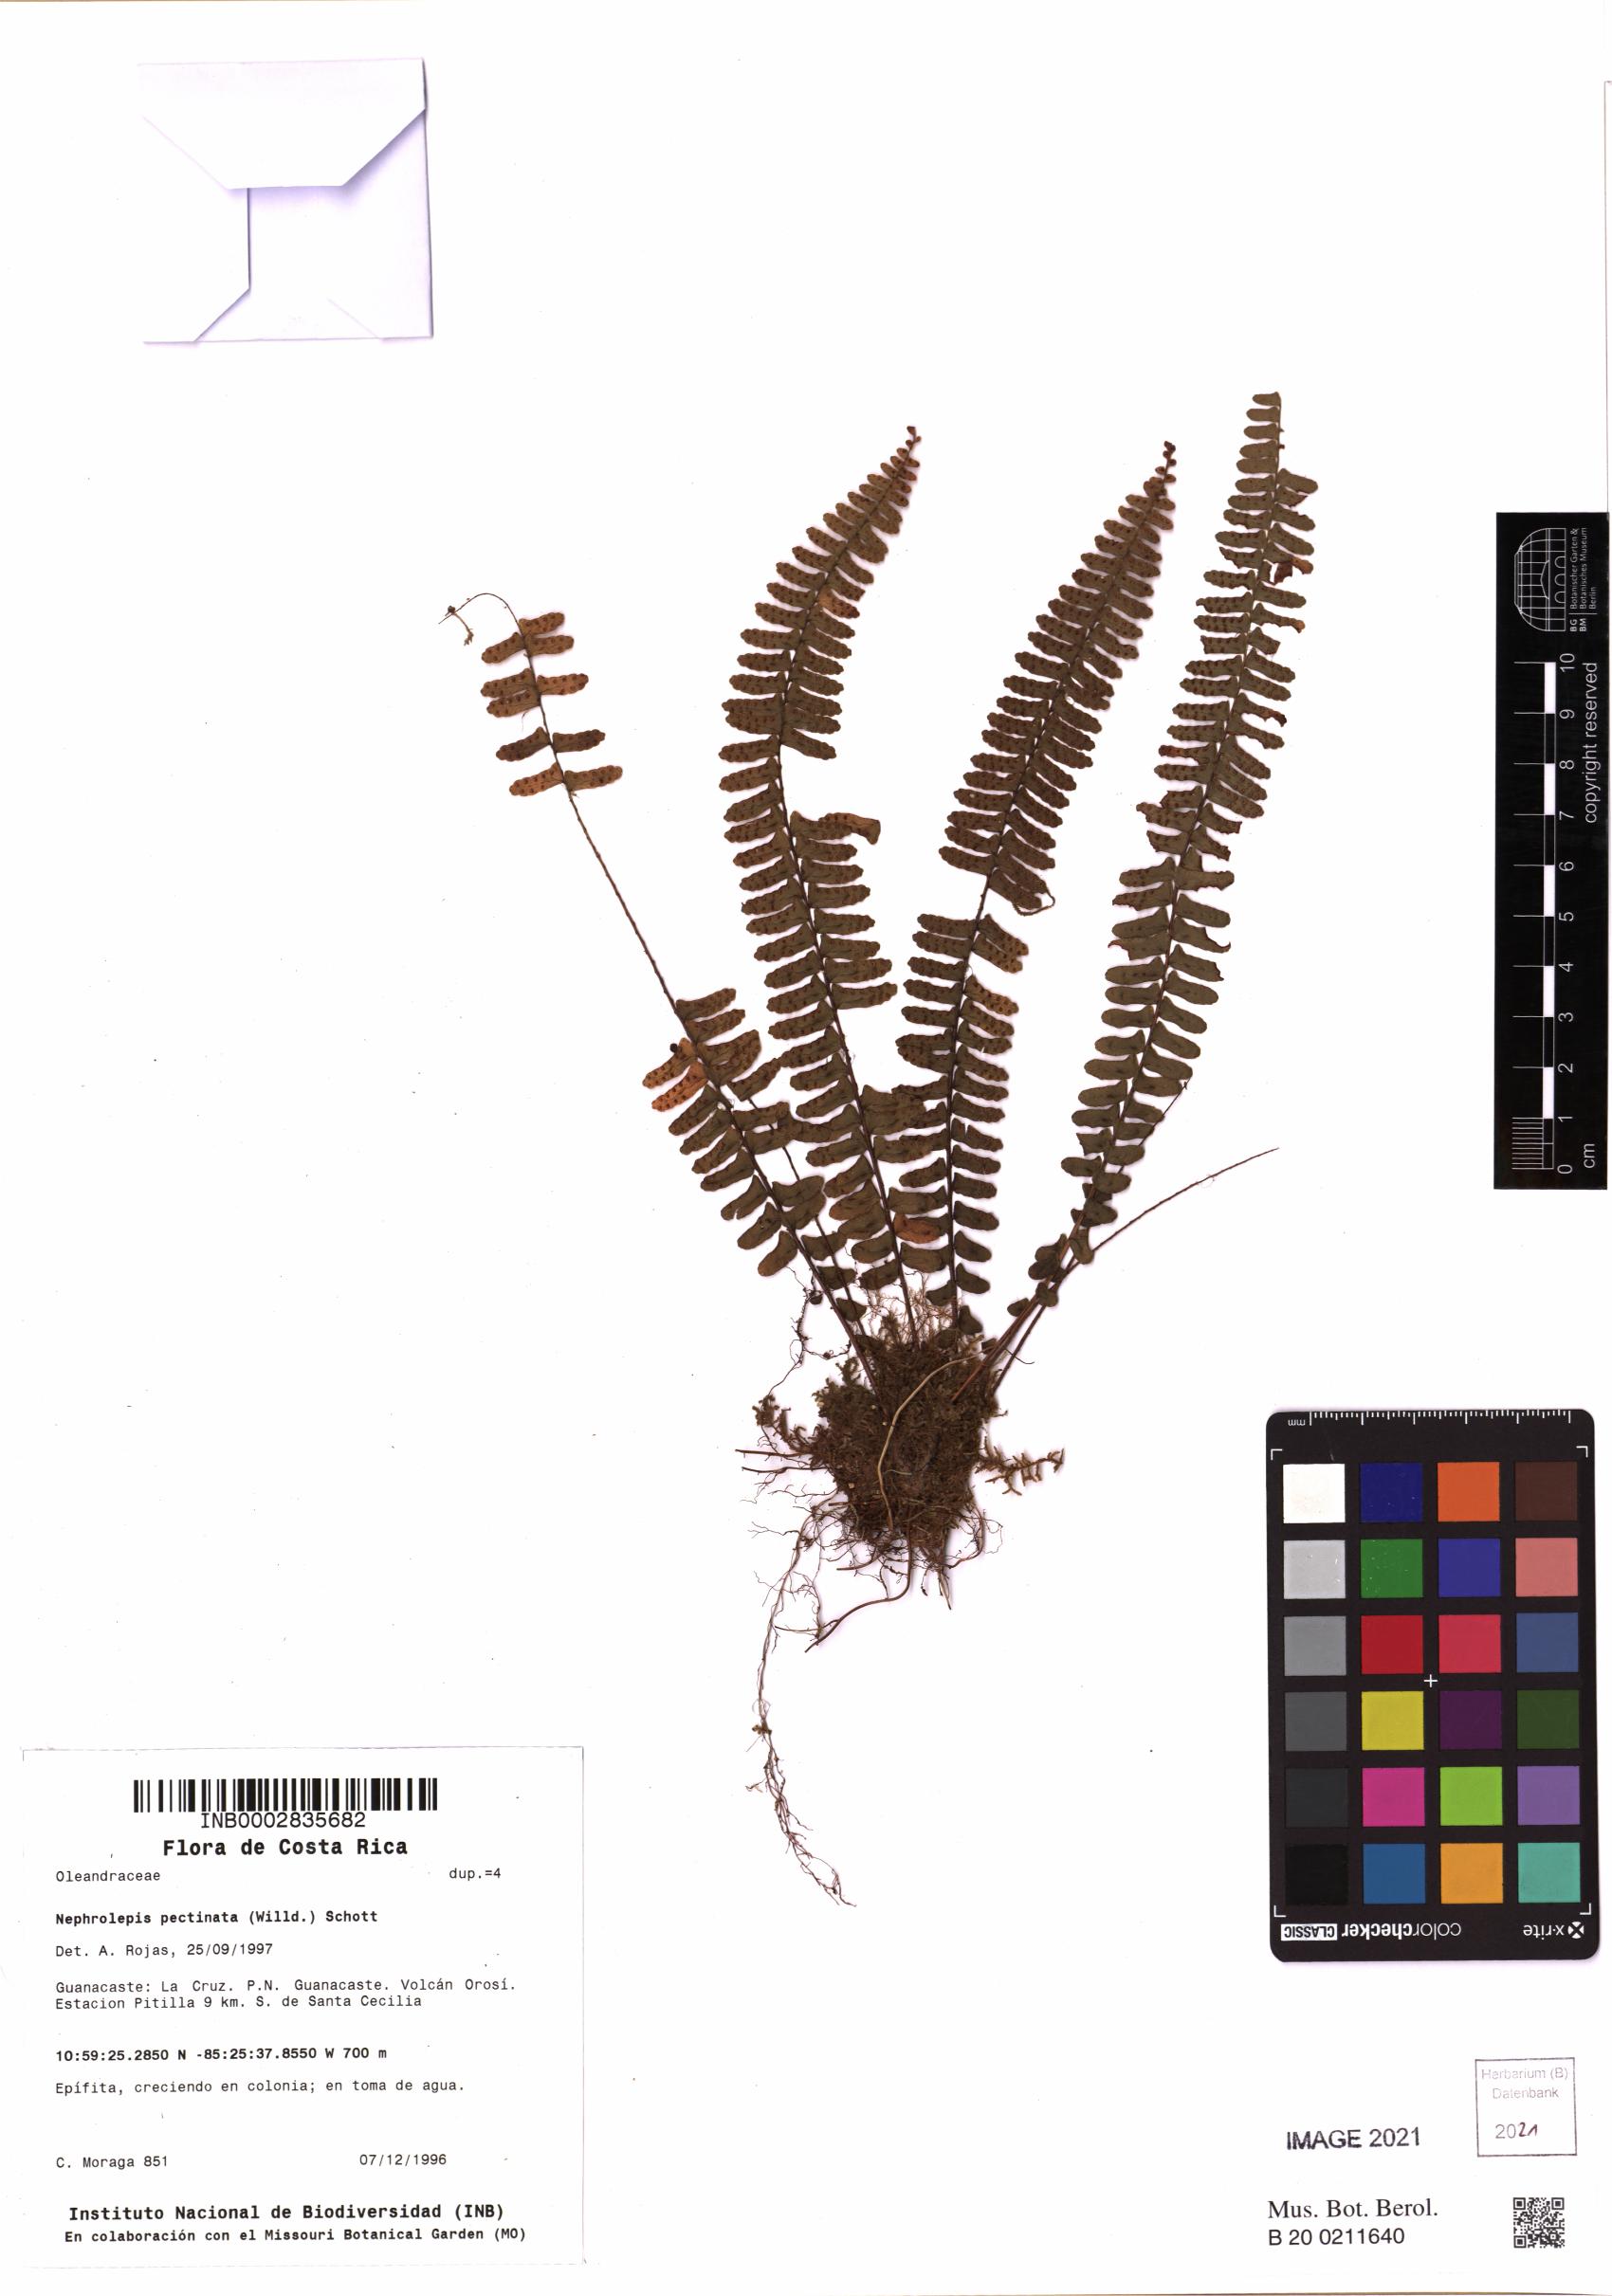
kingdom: Plantae
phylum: Tracheophyta
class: Polypodiopsida
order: Polypodiales
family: Nephrolepidaceae
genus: Nephrolepis
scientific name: Nephrolepis pectinata
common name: Basket fern
